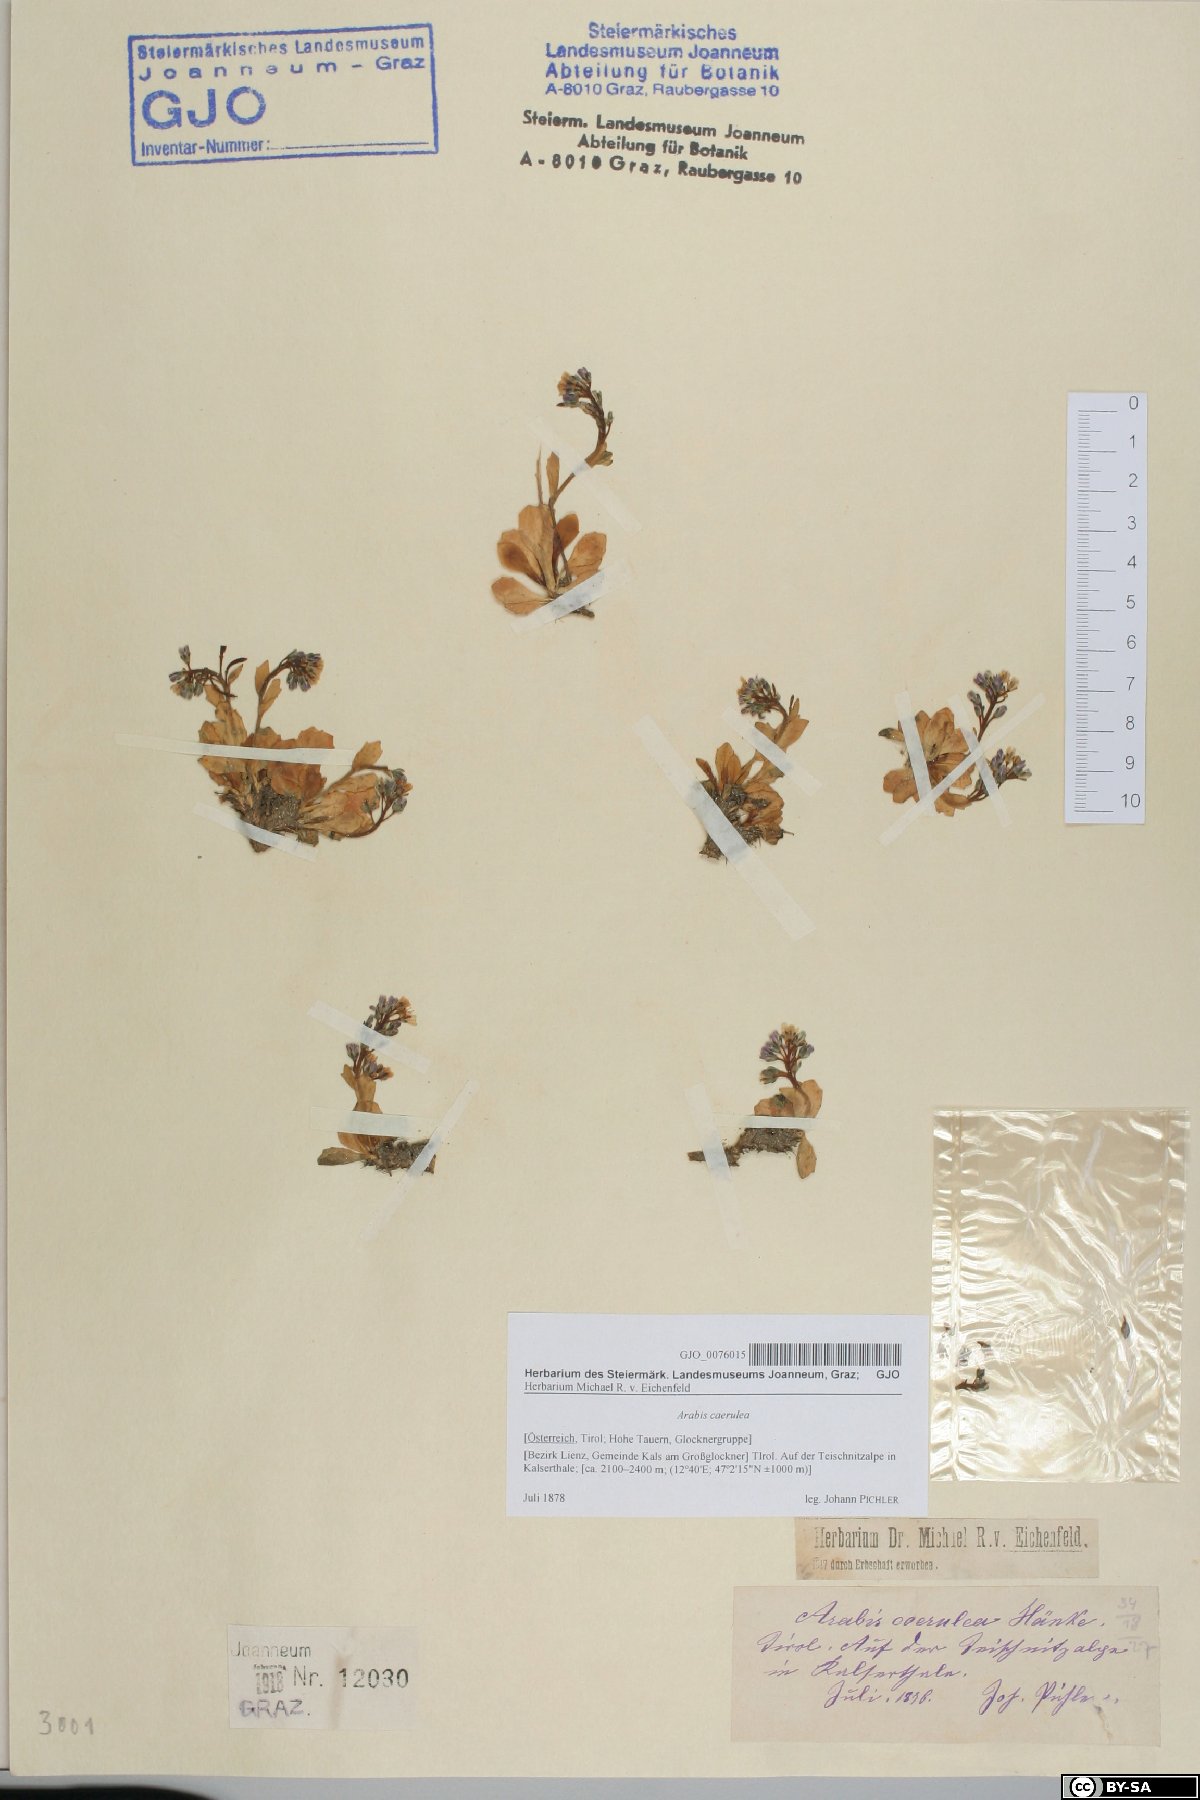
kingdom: Plantae
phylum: Tracheophyta
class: Magnoliopsida
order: Brassicales
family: Brassicaceae
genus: Arabis
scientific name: Arabis caerulea
